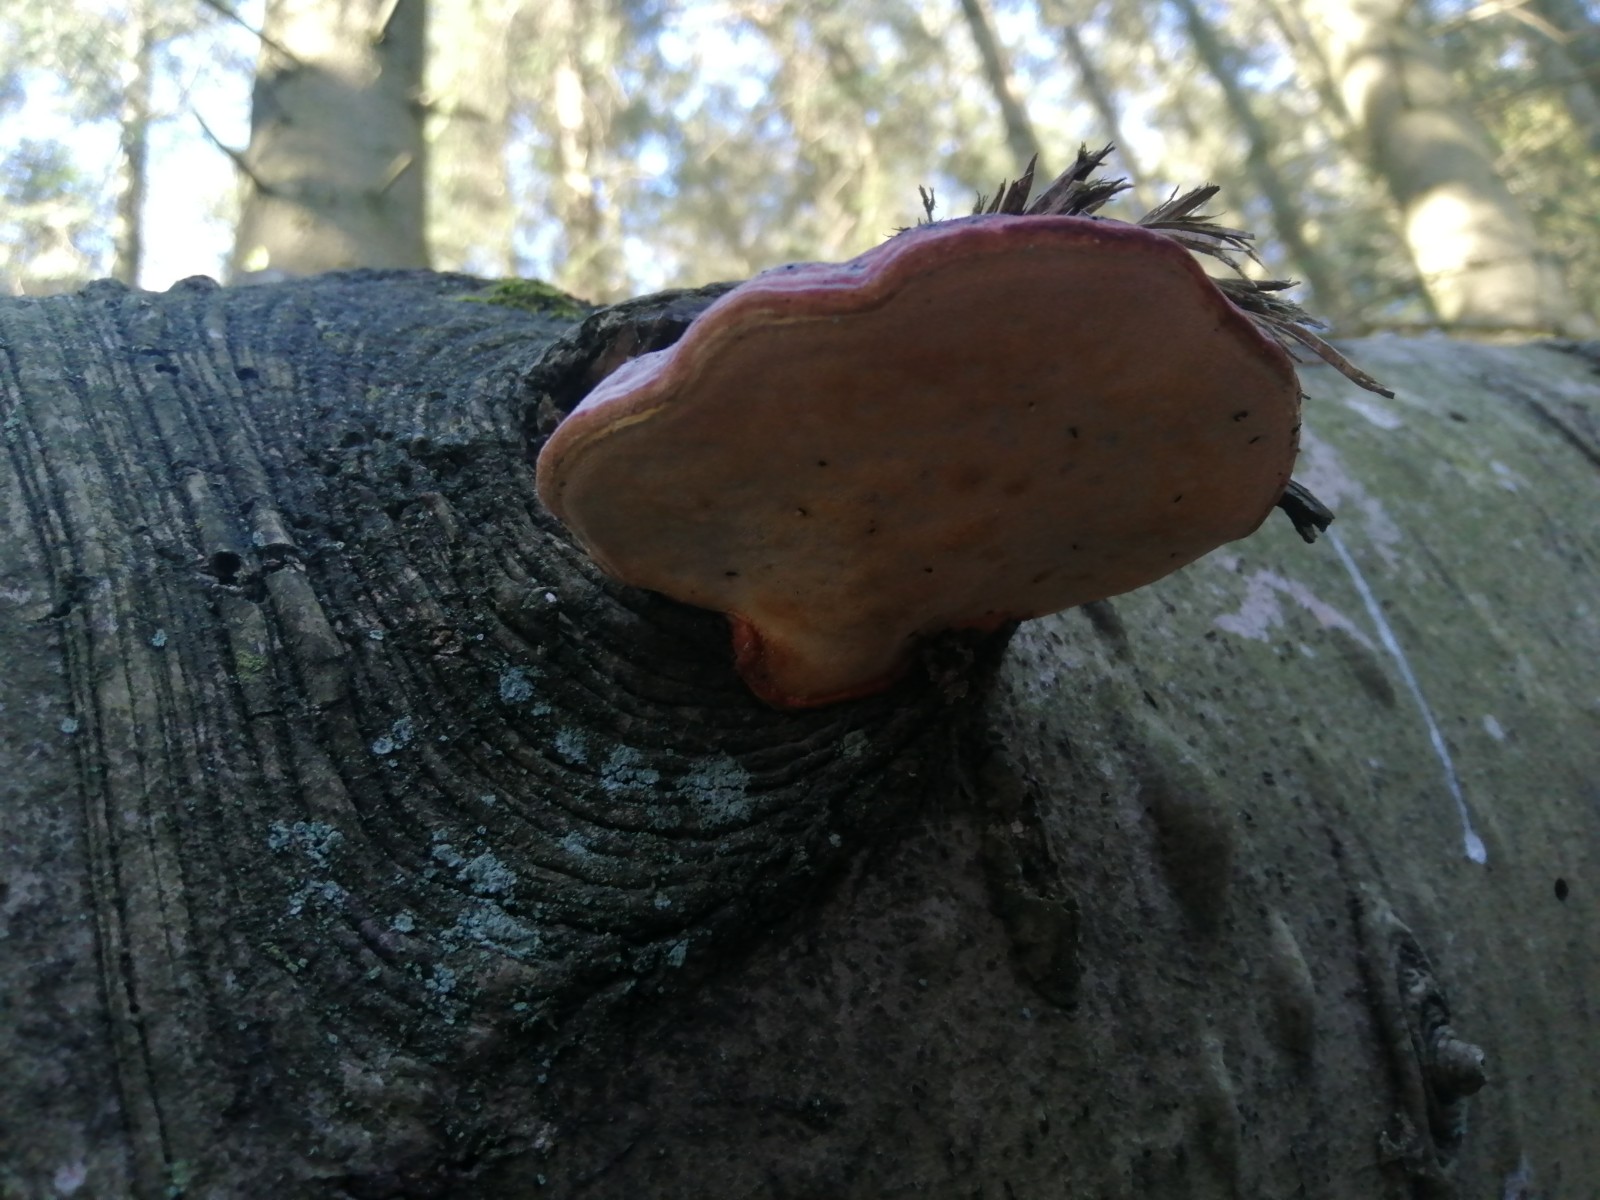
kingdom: Fungi
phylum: Basidiomycota
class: Agaricomycetes
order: Polyporales
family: Fomitopsidaceae
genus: Fomitopsis
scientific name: Fomitopsis pinicola
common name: randbæltet hovporesvamp
